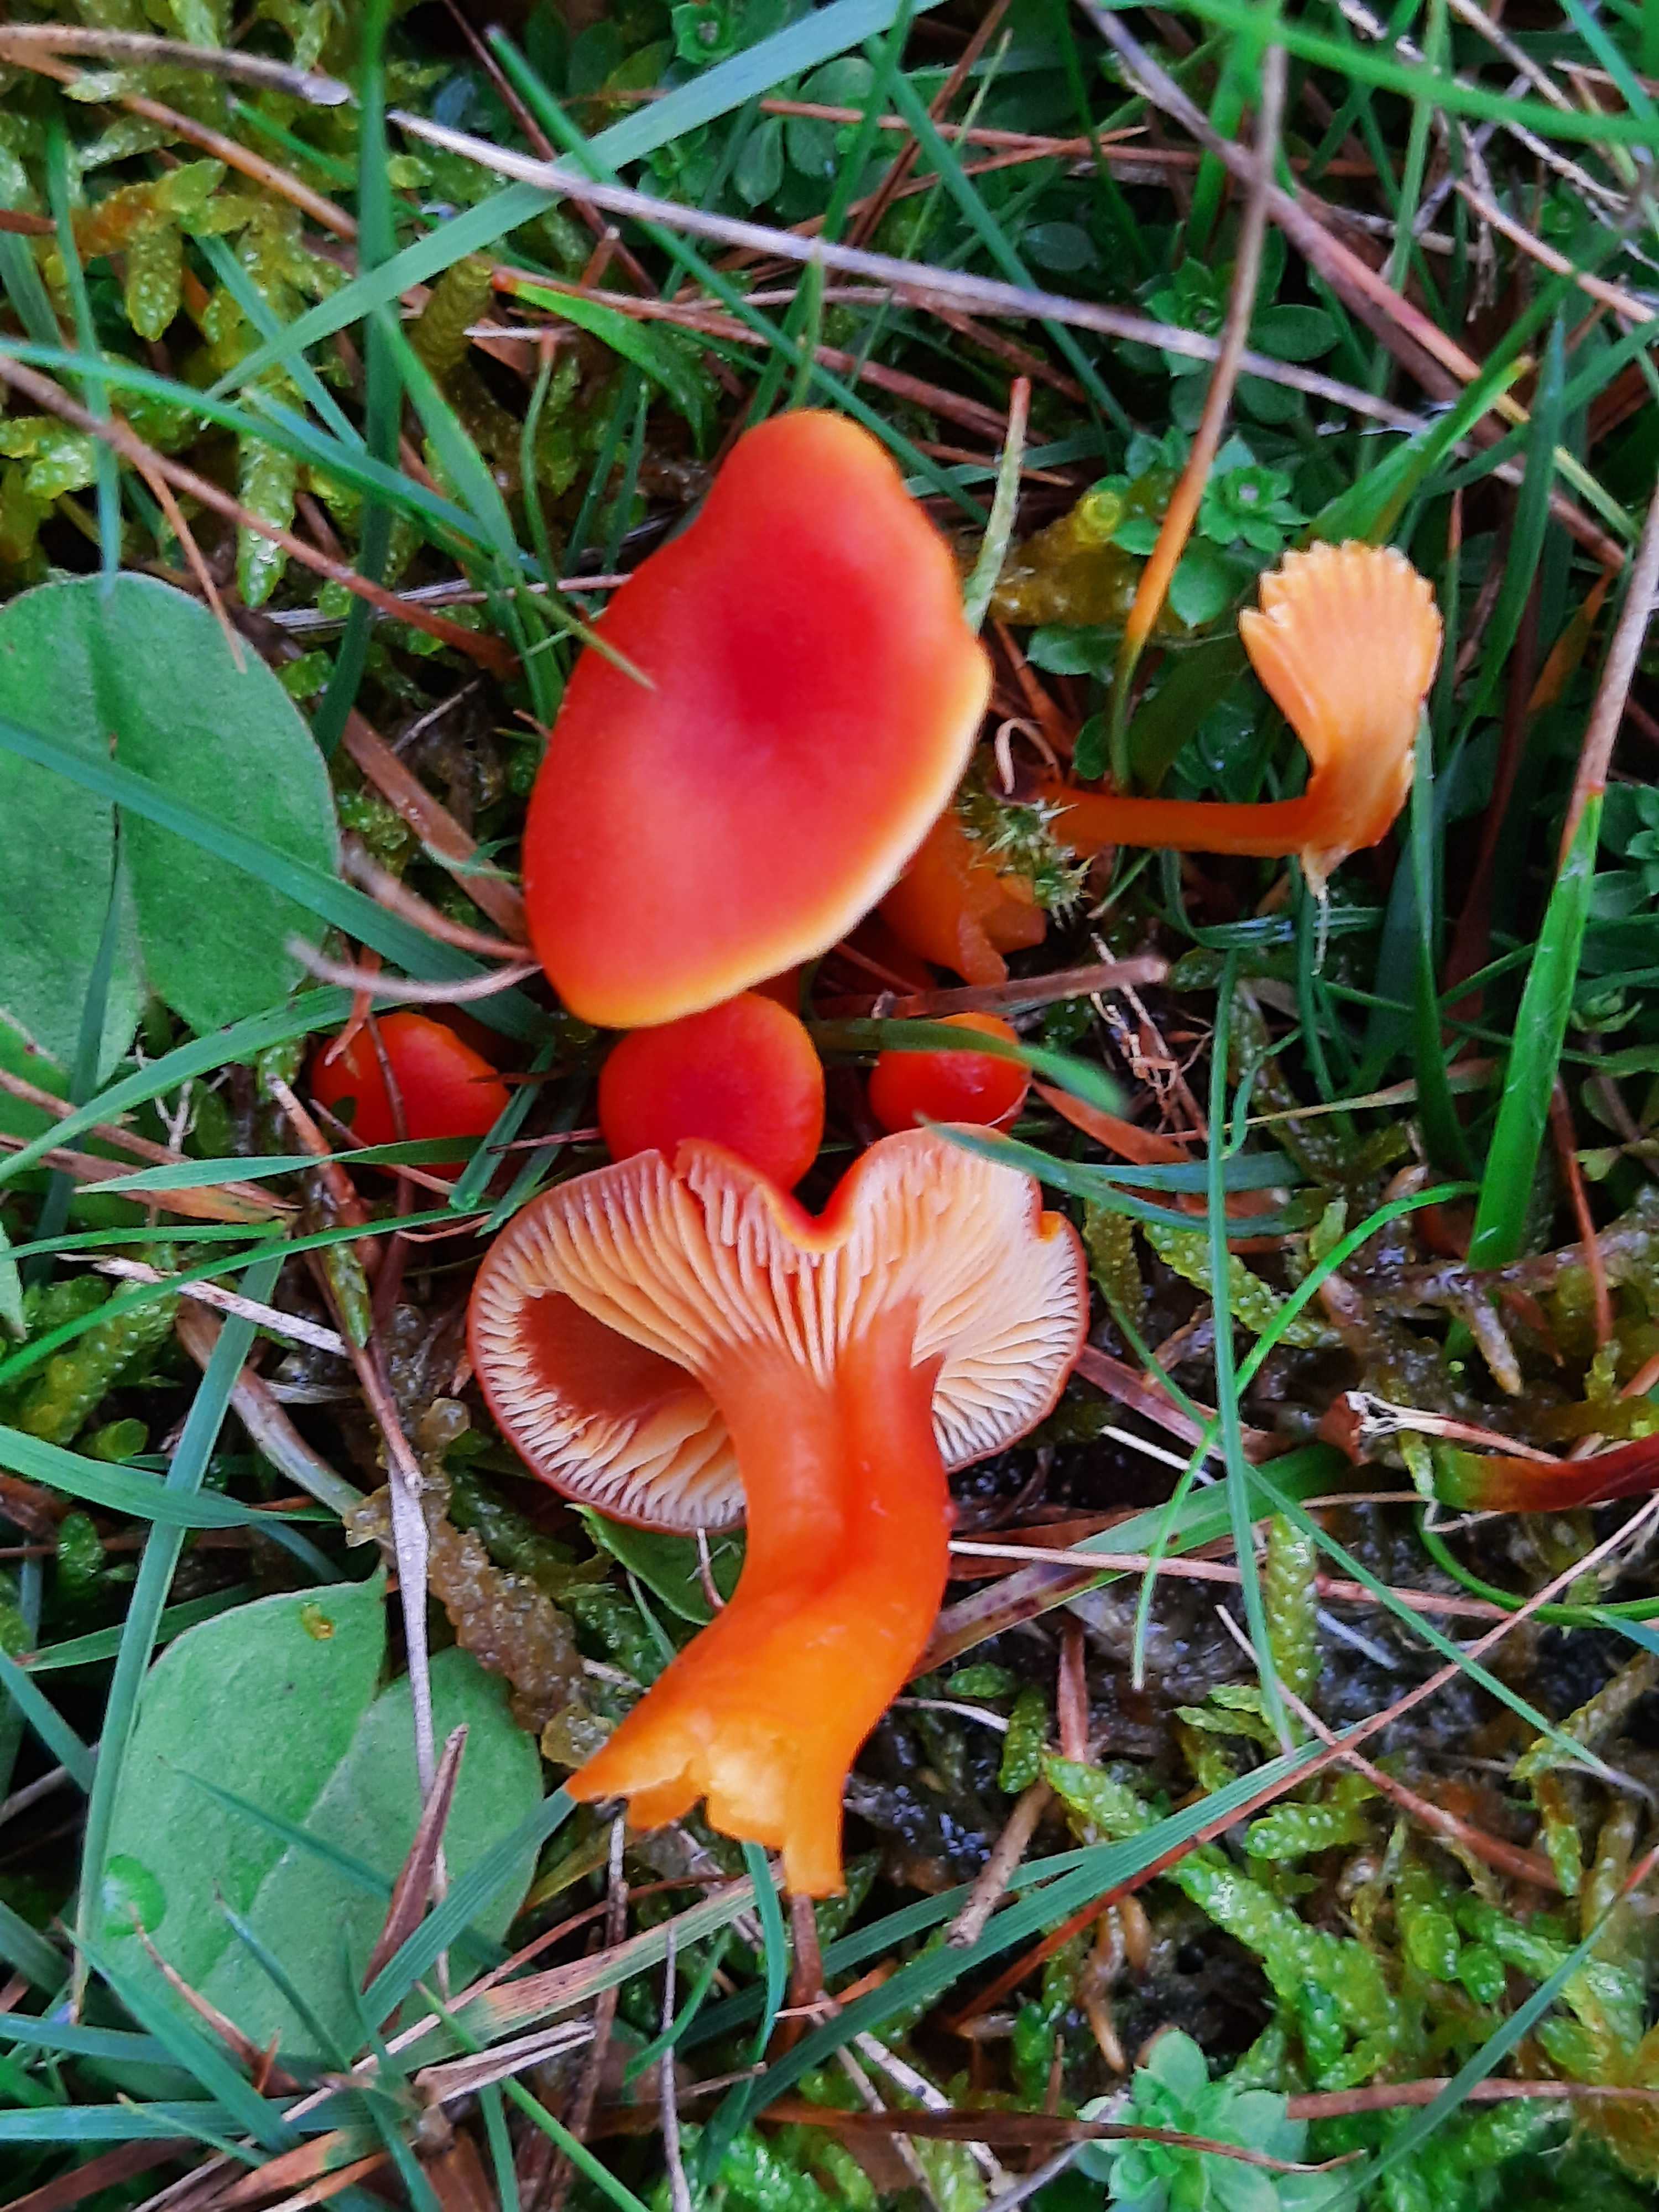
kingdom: Fungi
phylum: Basidiomycota
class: Agaricomycetes
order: Agaricales
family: Hygrophoraceae
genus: Hygrocybe
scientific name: Hygrocybe miniata
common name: mønje-vokshat
